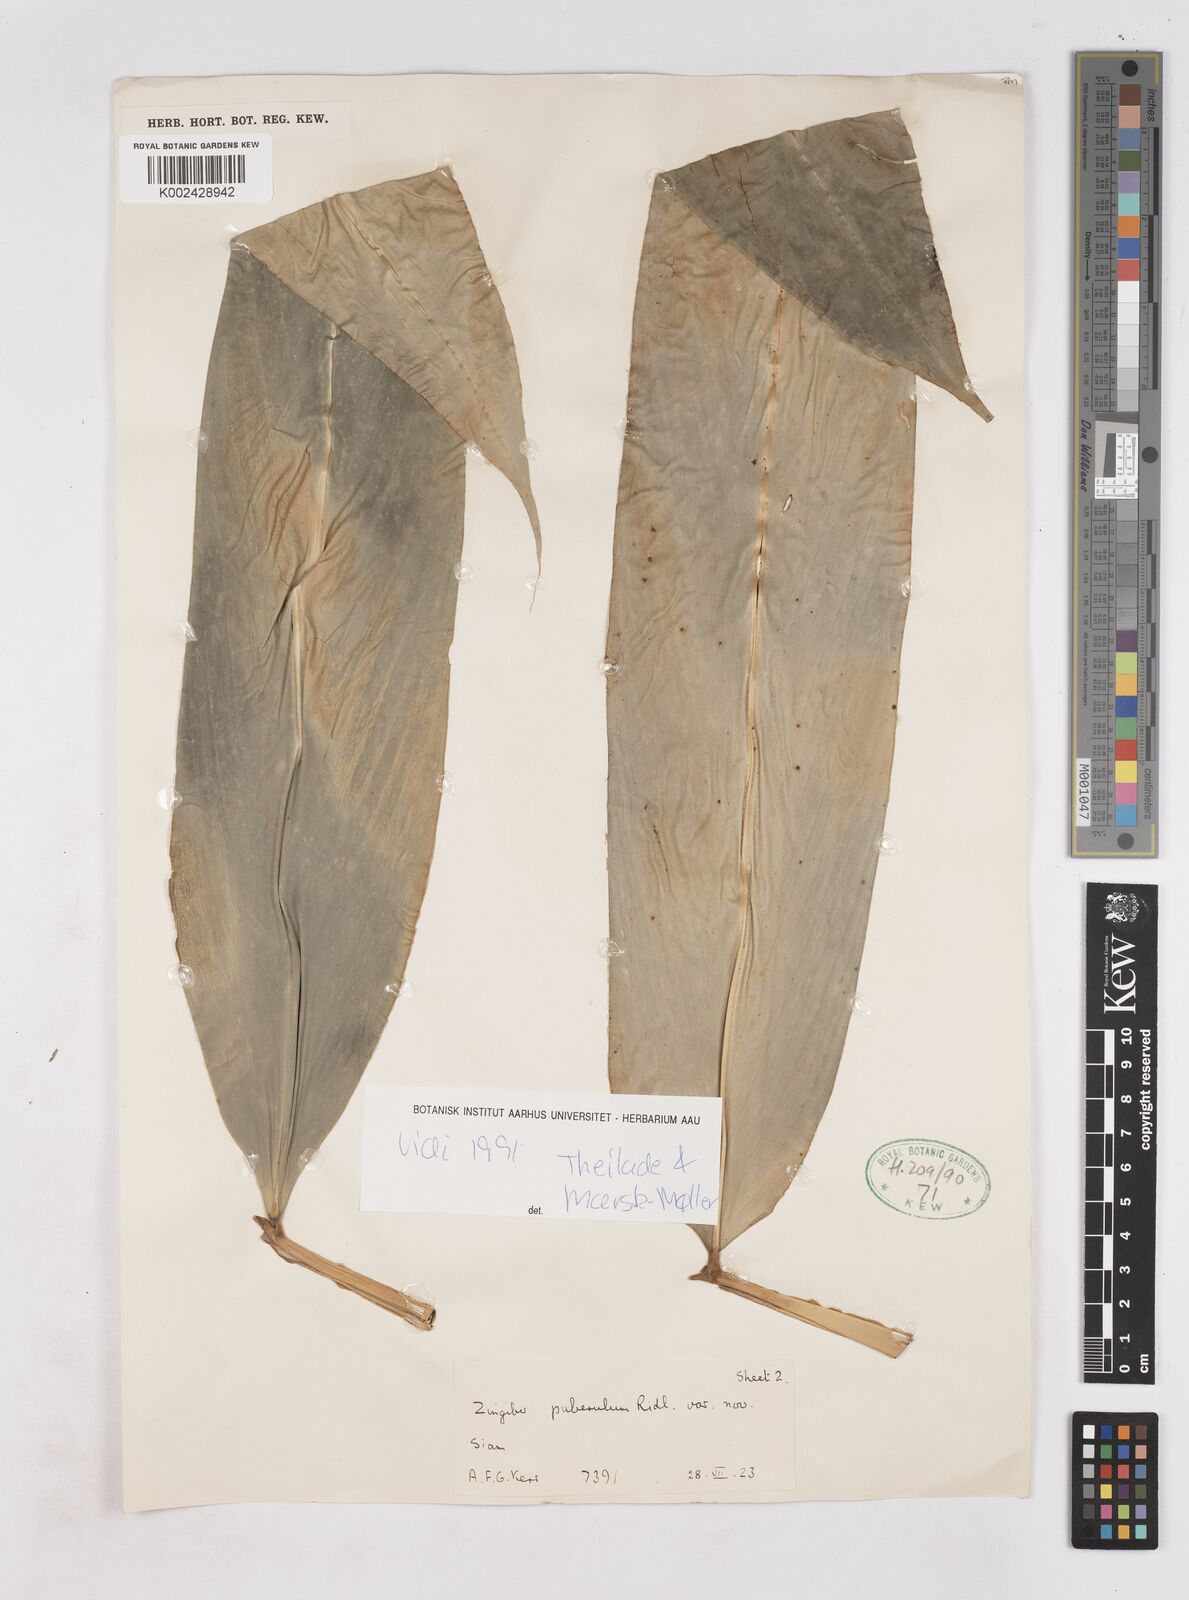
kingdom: Plantae
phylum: Tracheophyta
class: Liliopsida
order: Zingiberales
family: Zingiberaceae
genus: Zingiber
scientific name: Zingiber puberulum
